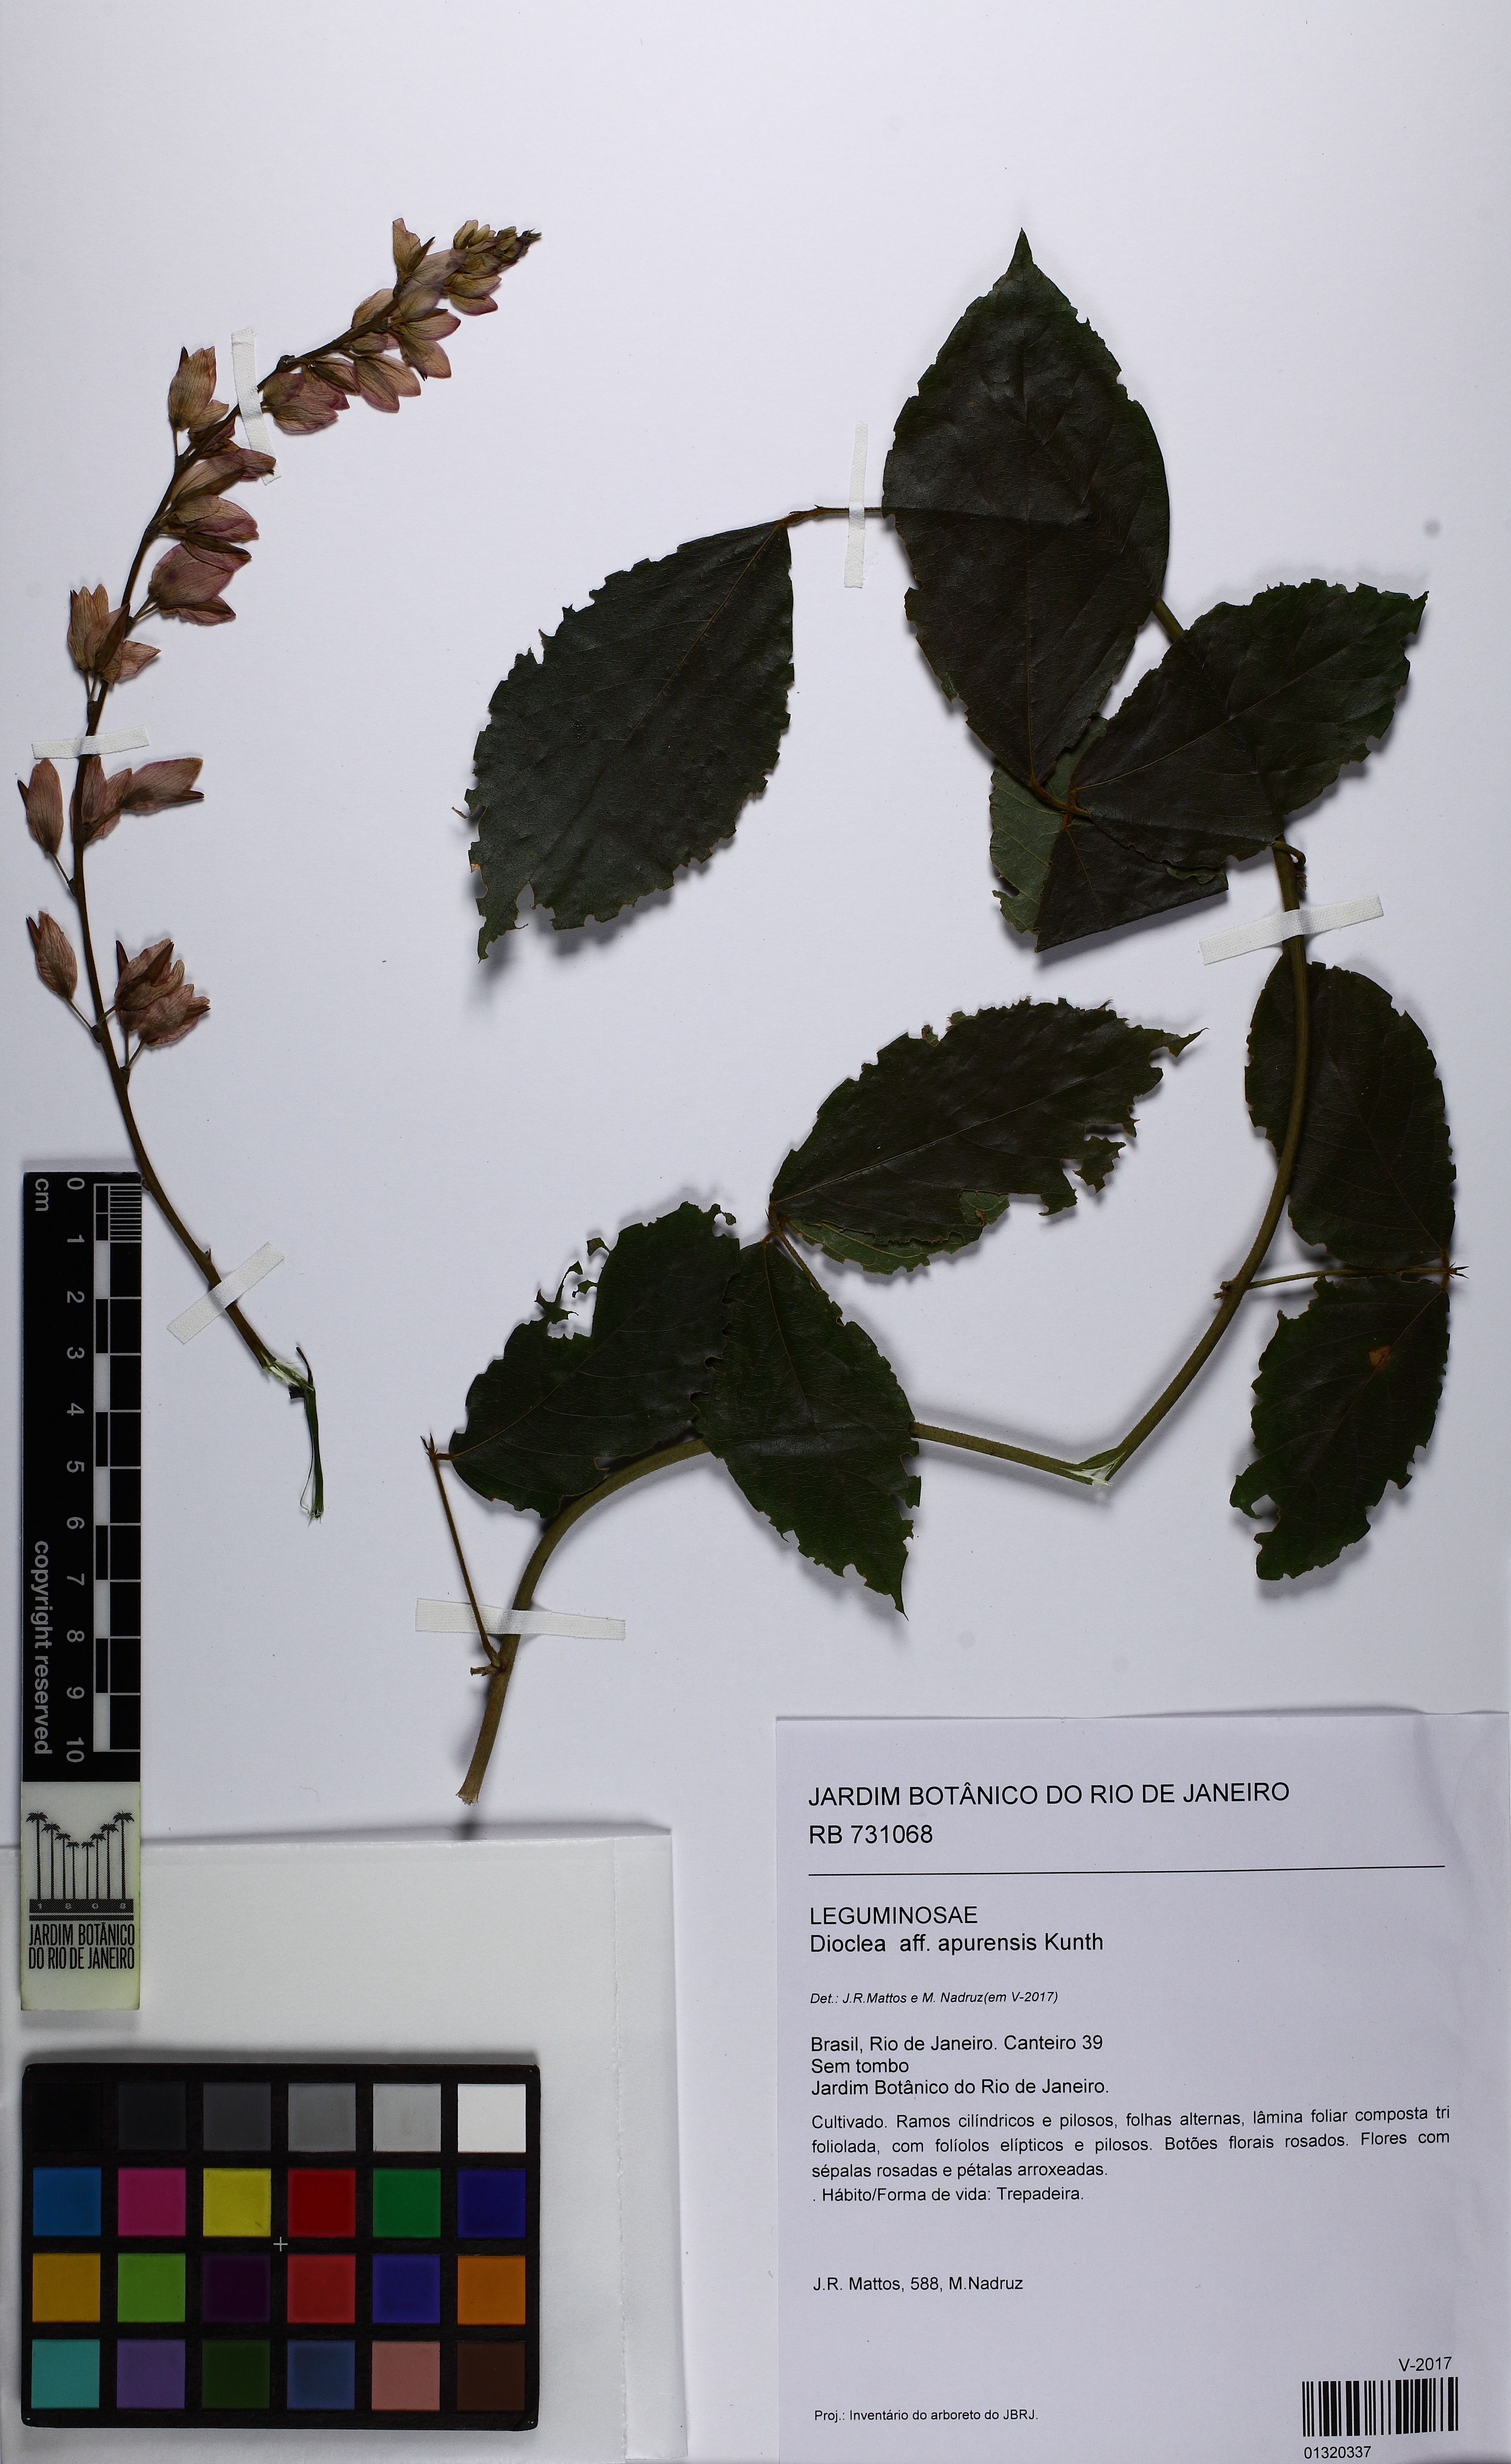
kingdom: Plantae
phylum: Tracheophyta
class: Magnoliopsida
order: Fabales
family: Fabaceae
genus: Dioclea
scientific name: Dioclea apurensis
